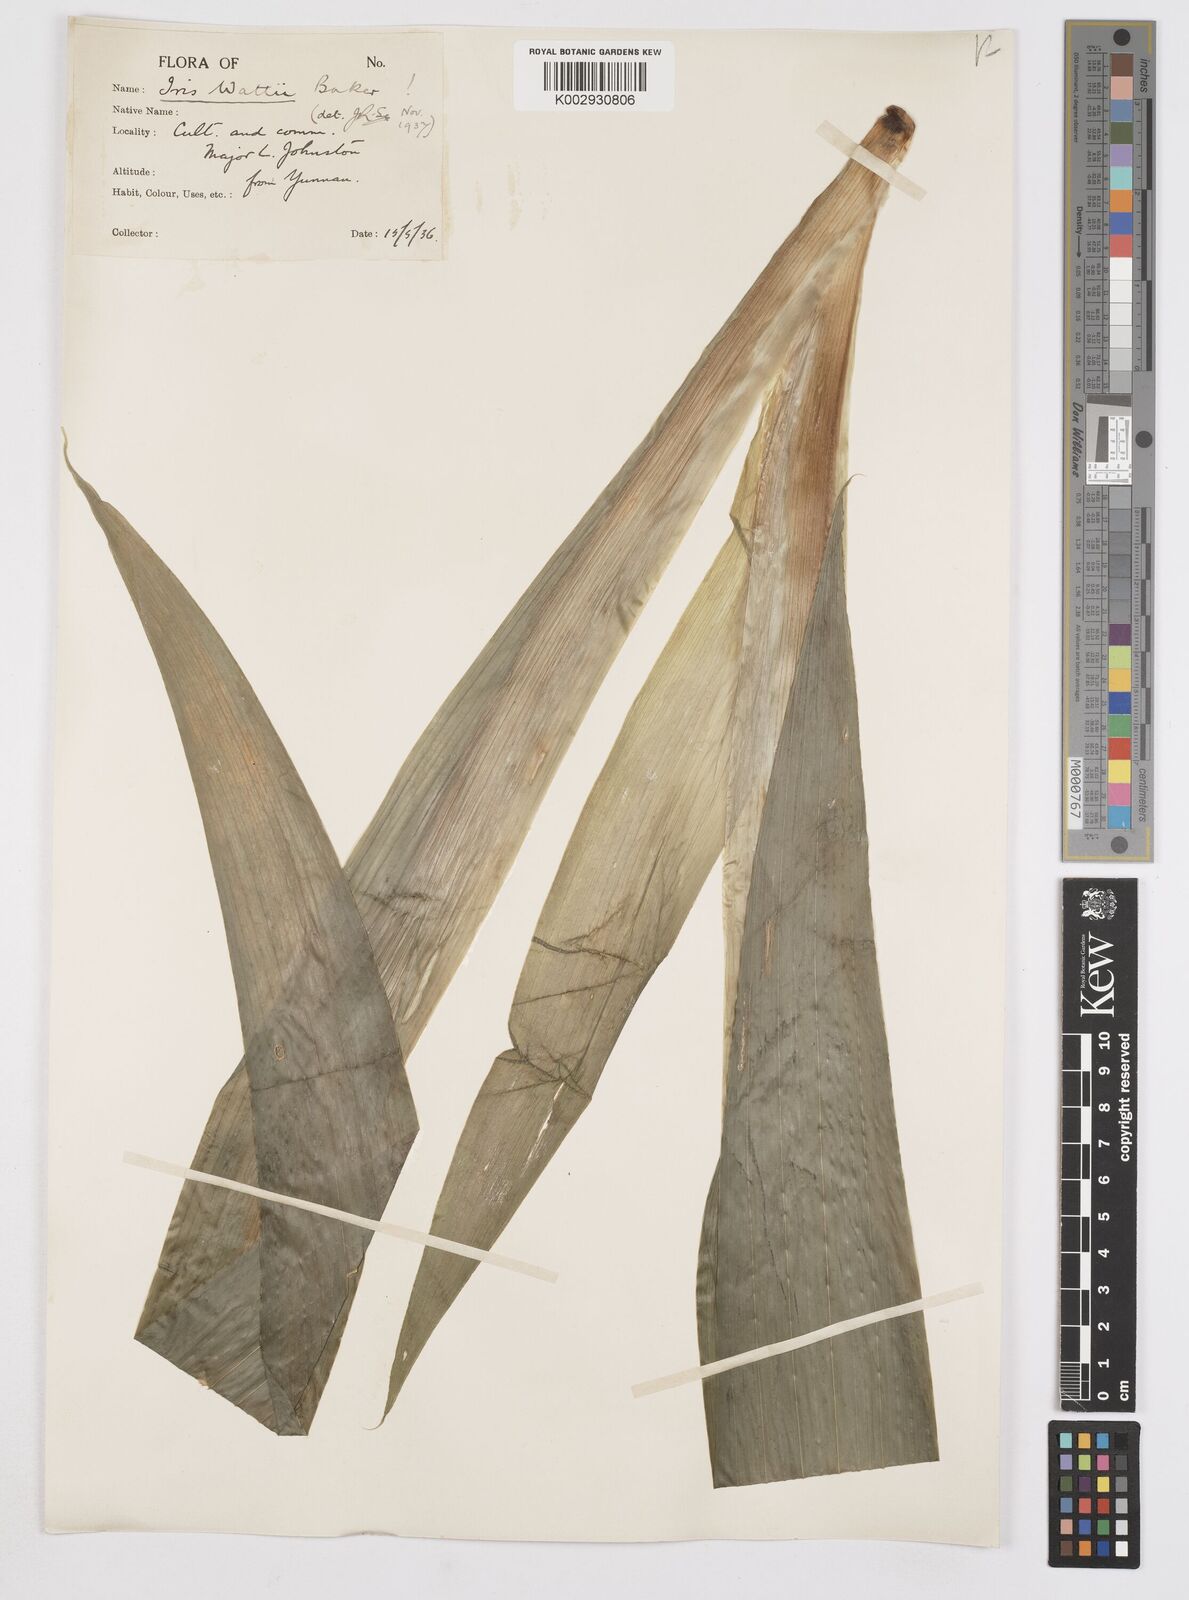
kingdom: Plantae
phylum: Tracheophyta
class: Liliopsida
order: Asparagales
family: Iridaceae
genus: Iris
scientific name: Iris wattii
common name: Fan-shape iris
